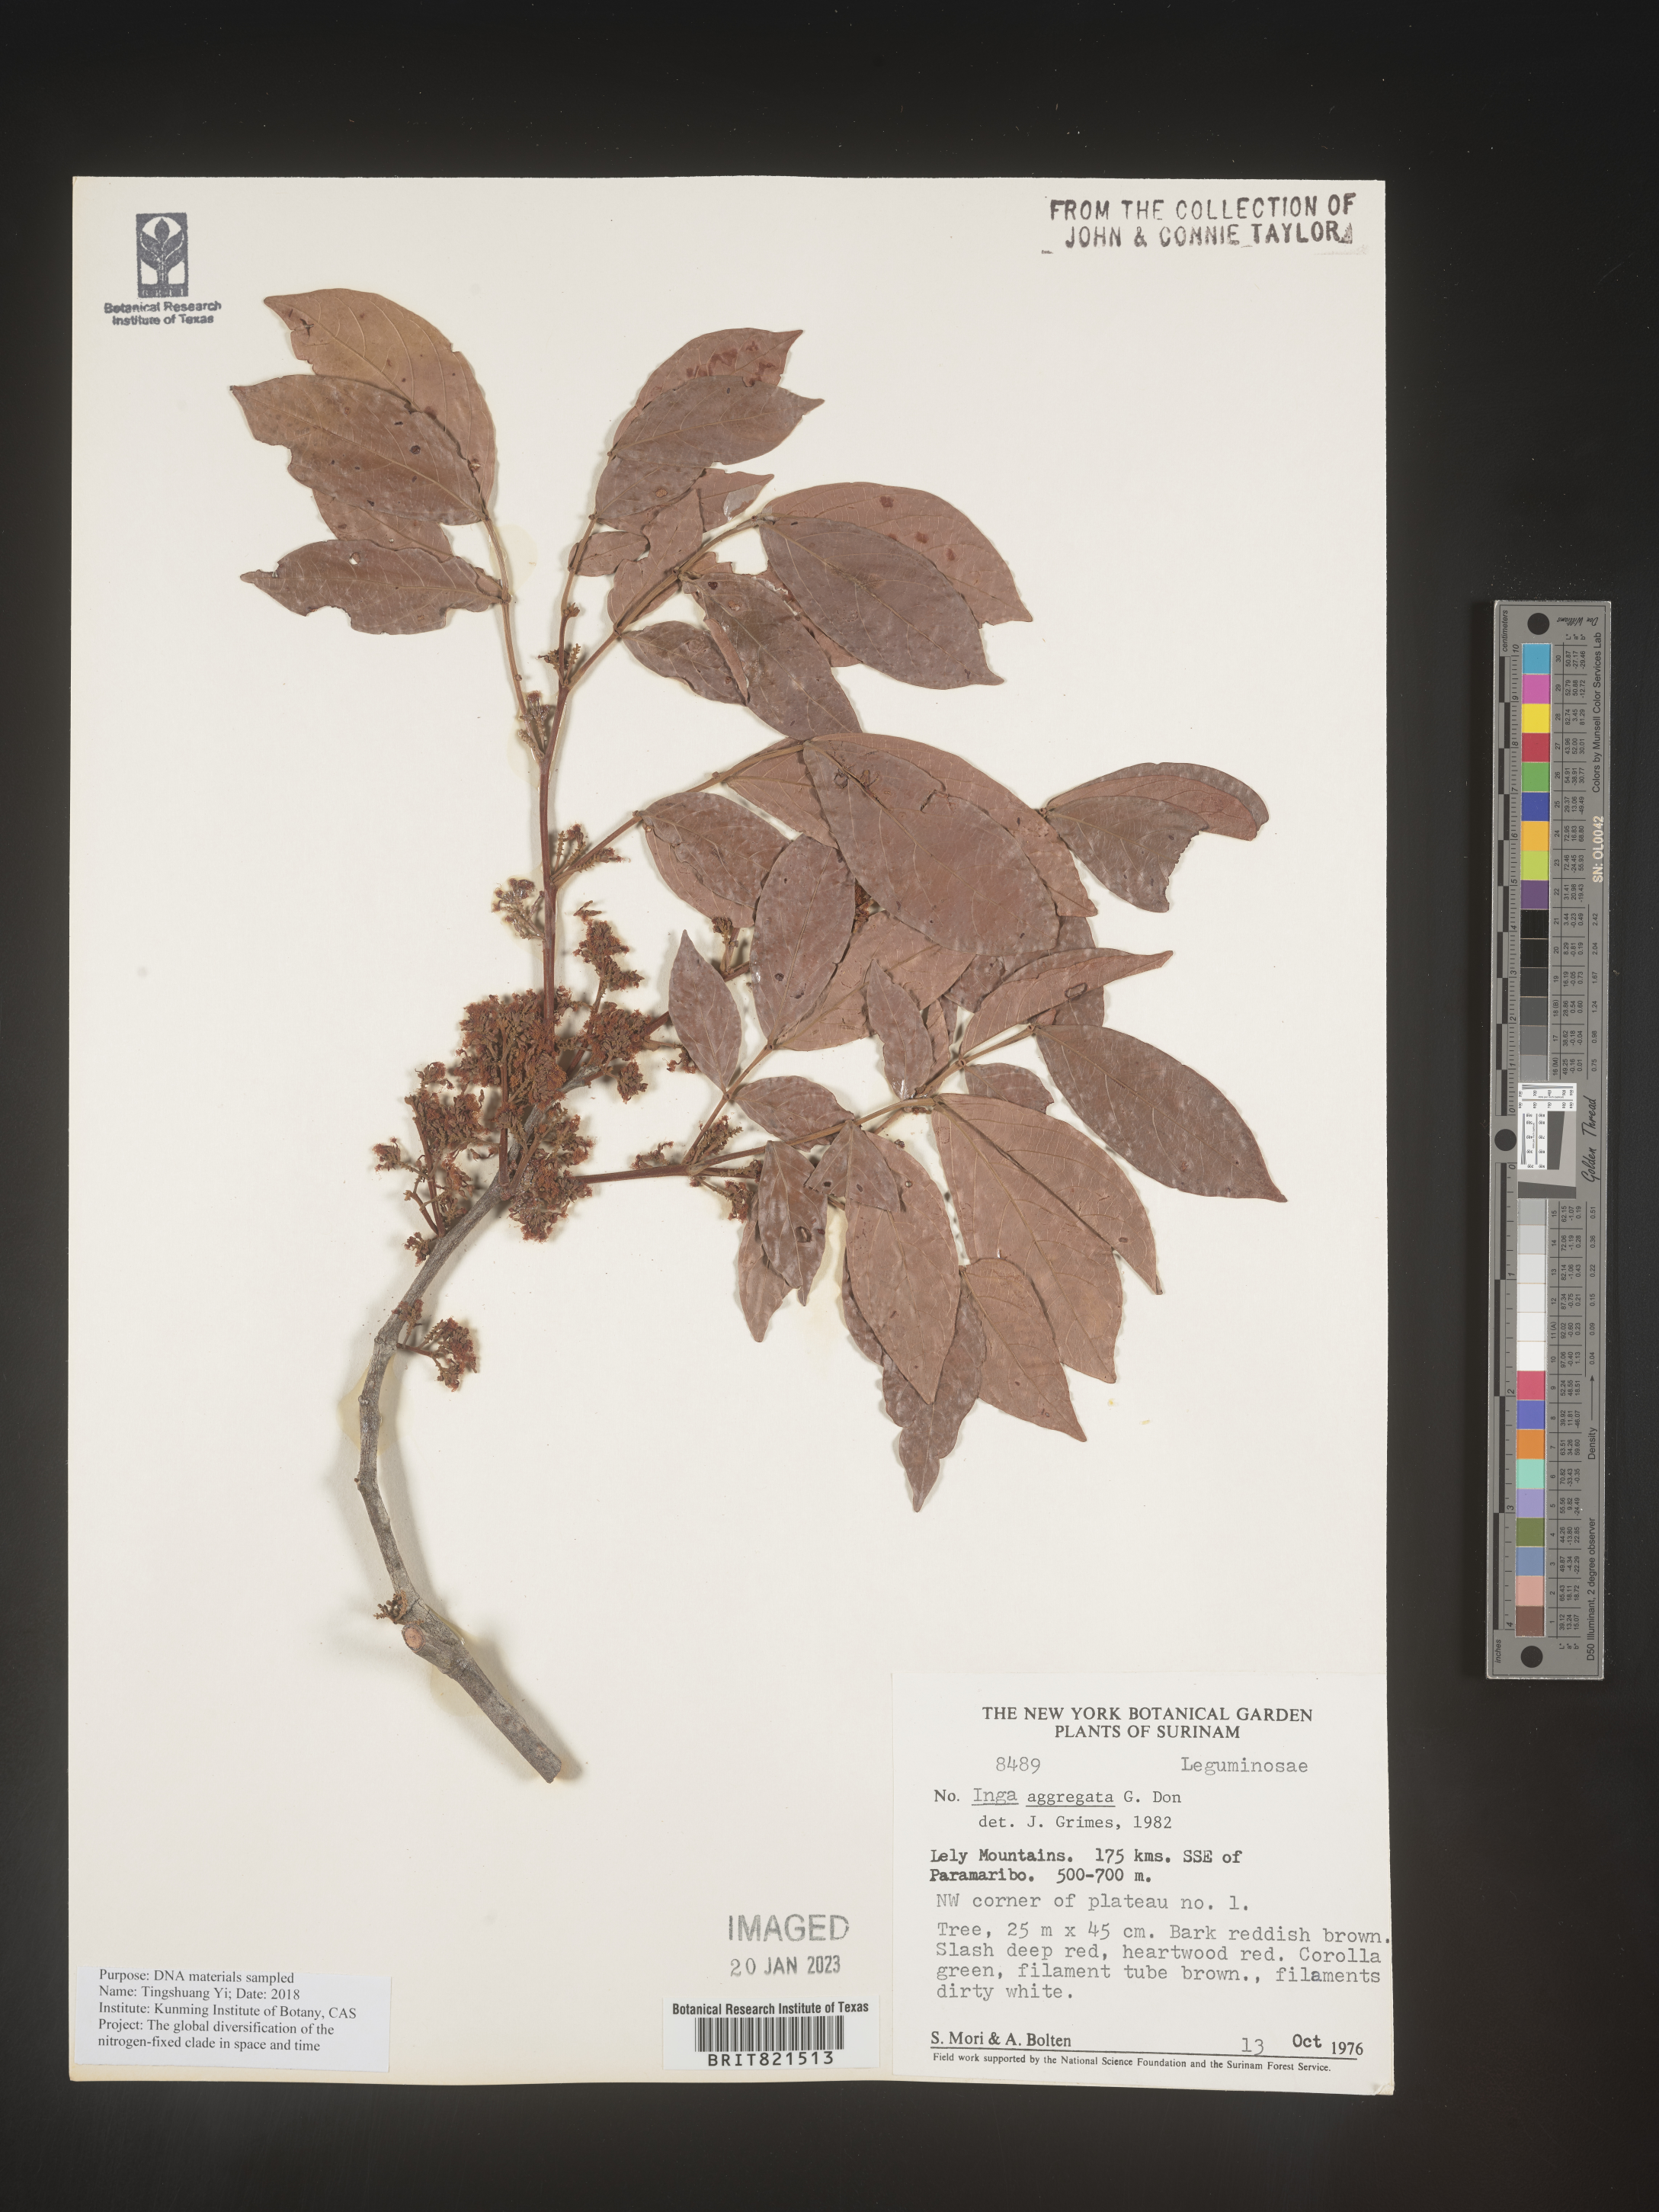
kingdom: Plantae
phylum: Tracheophyta
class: Magnoliopsida
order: Fabales
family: Fabaceae
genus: Inga
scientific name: Inga
